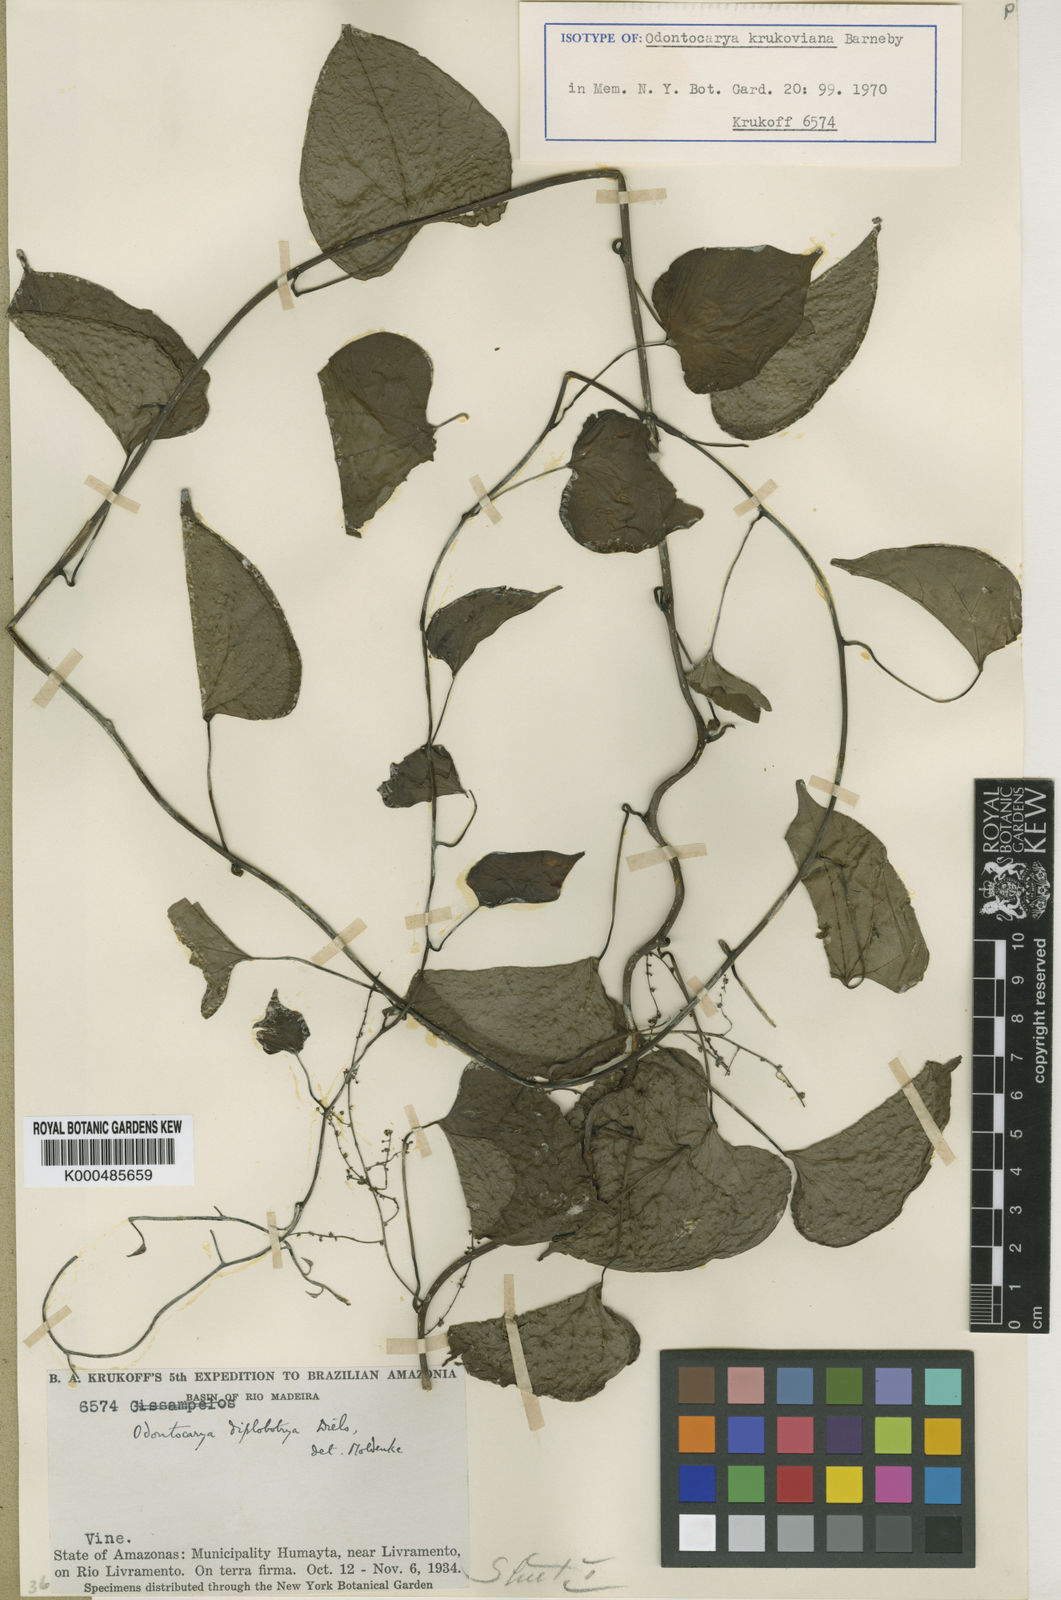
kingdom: Plantae
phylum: Tracheophyta
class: Magnoliopsida
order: Ranunculales
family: Menispermaceae
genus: Odontocarya
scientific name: Odontocarya krukoviana
